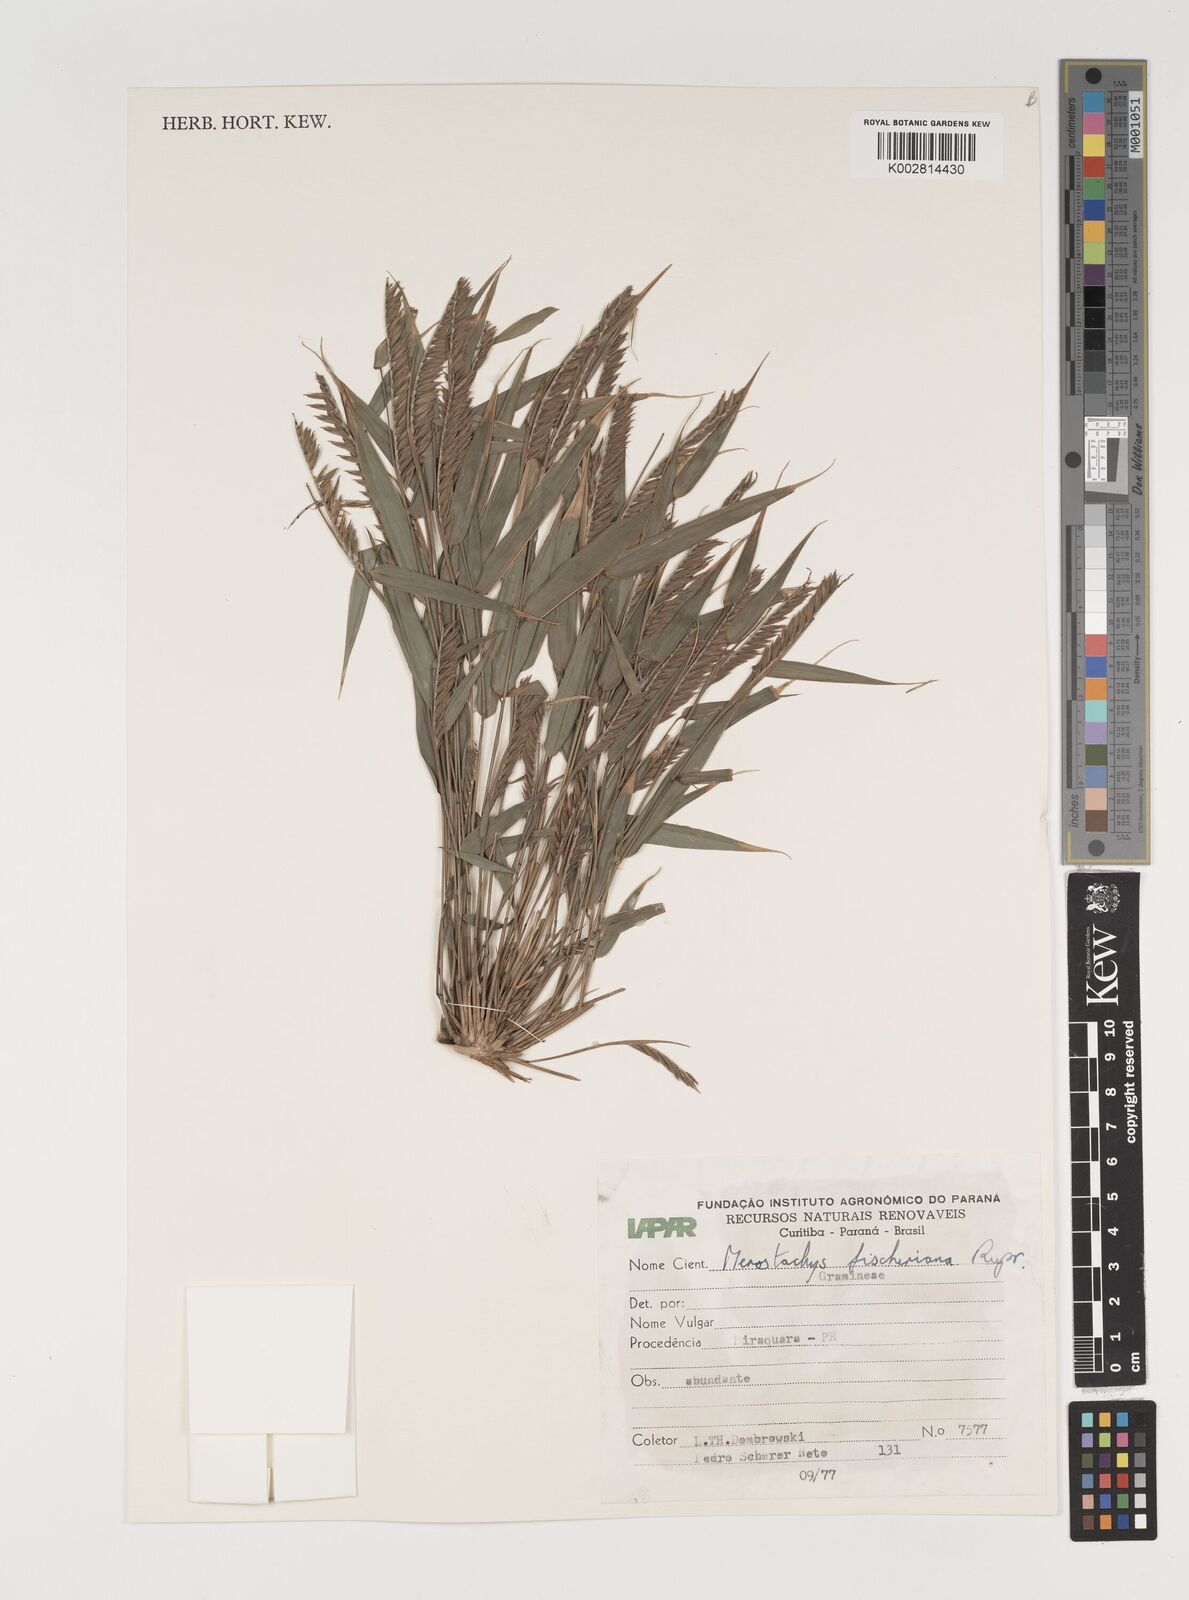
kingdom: Plantae
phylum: Tracheophyta
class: Liliopsida
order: Poales
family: Poaceae
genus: Merostachys
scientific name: Merostachys fischeriana
